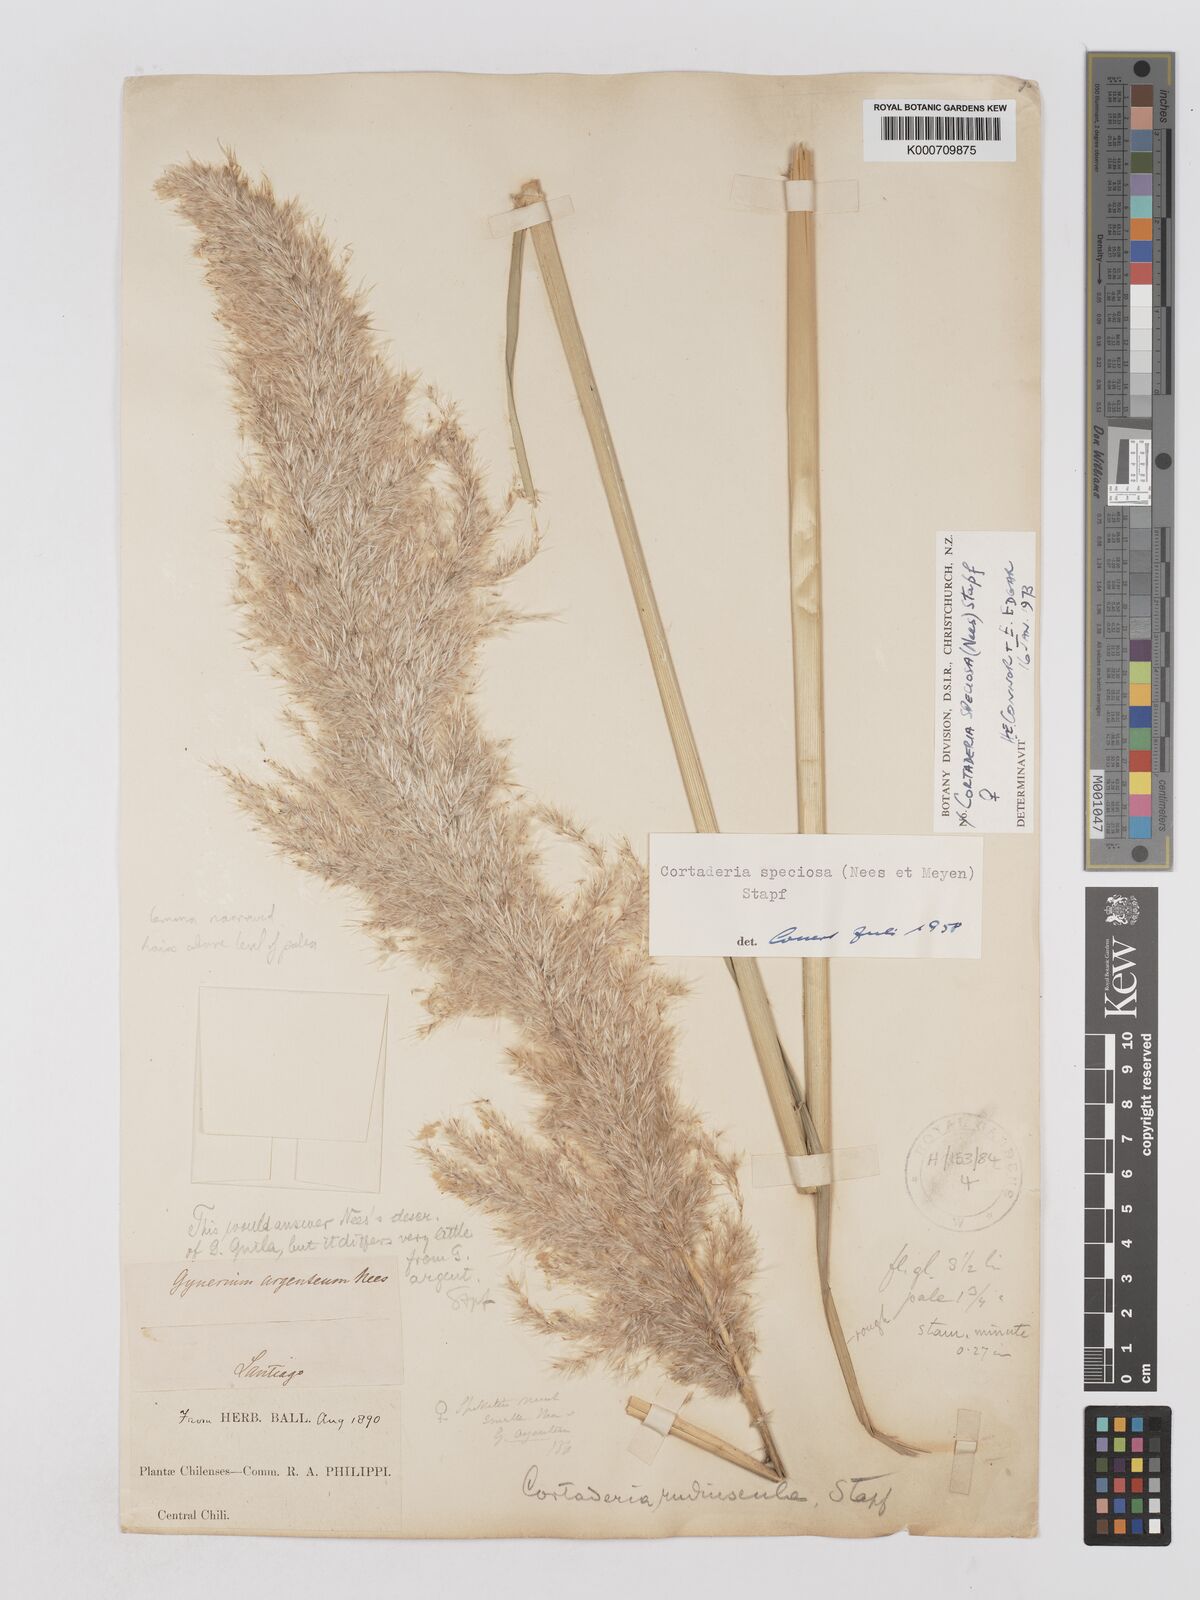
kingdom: Plantae
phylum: Tracheophyta
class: Liliopsida
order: Poales
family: Poaceae
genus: Cortaderia
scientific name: Cortaderia speciosa
